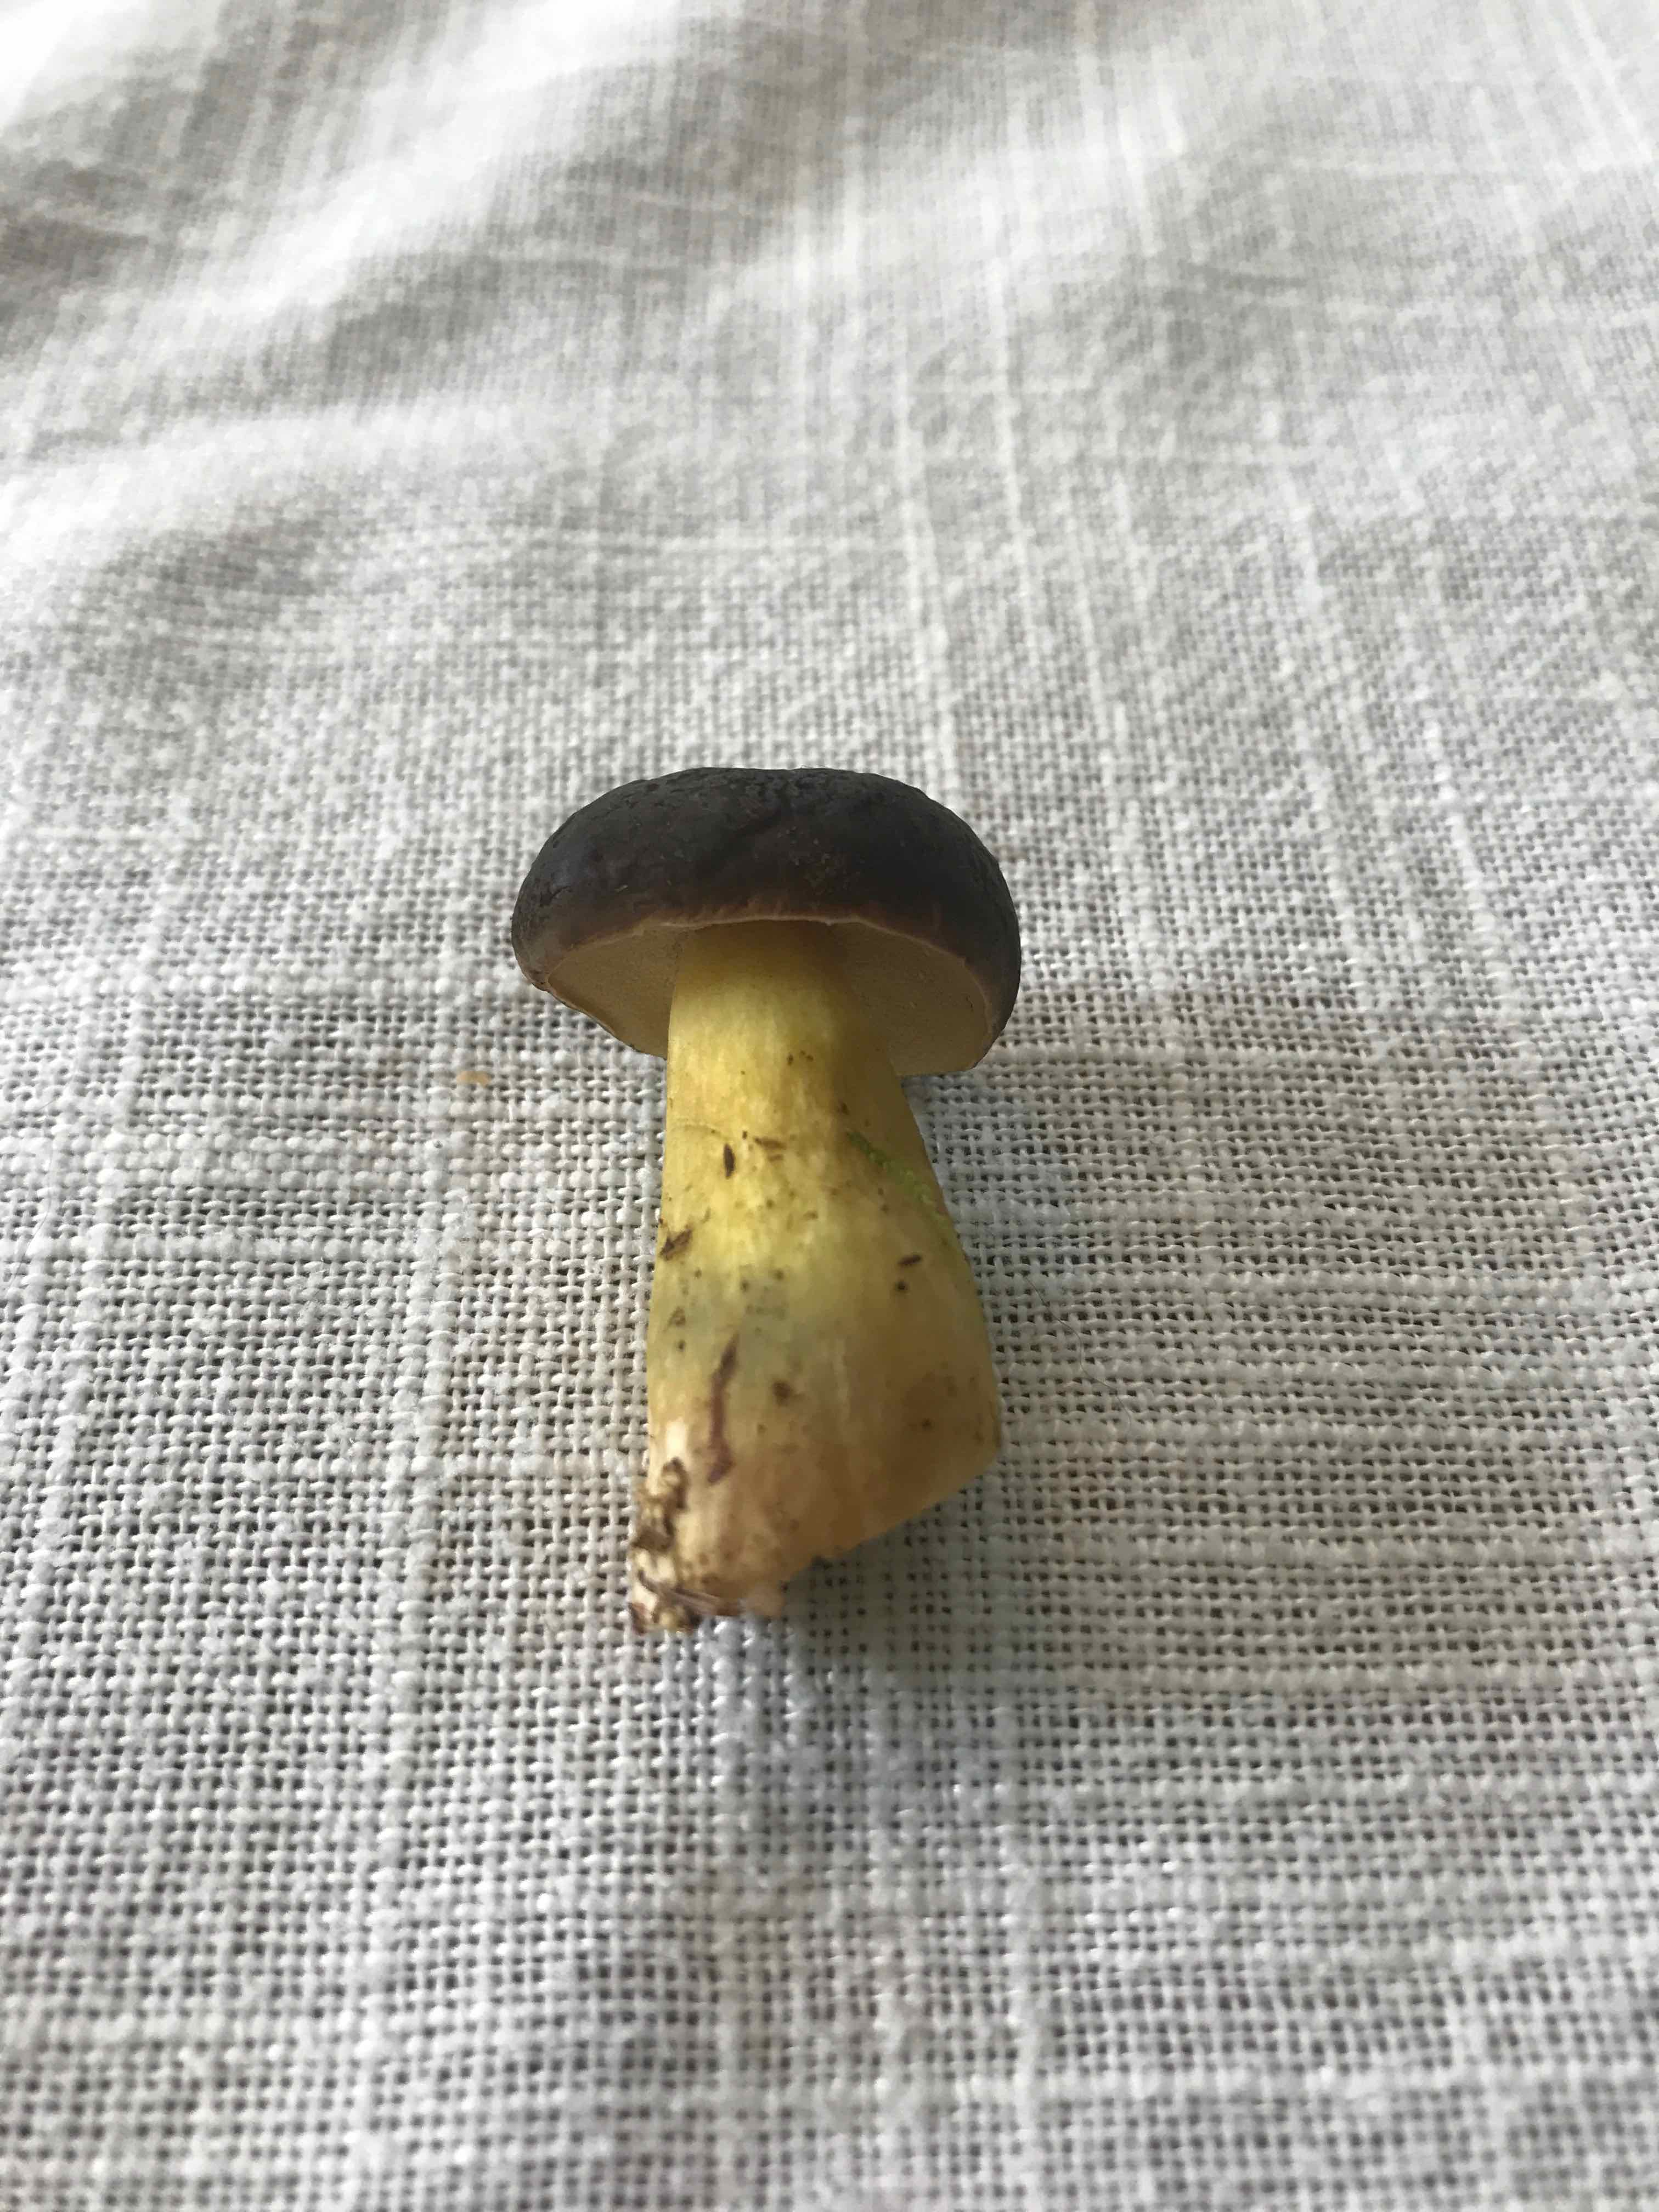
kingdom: Fungi
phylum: Basidiomycota
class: Agaricomycetes
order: Boletales
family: Boletaceae
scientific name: Boletaceae
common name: rørhatfamilien
